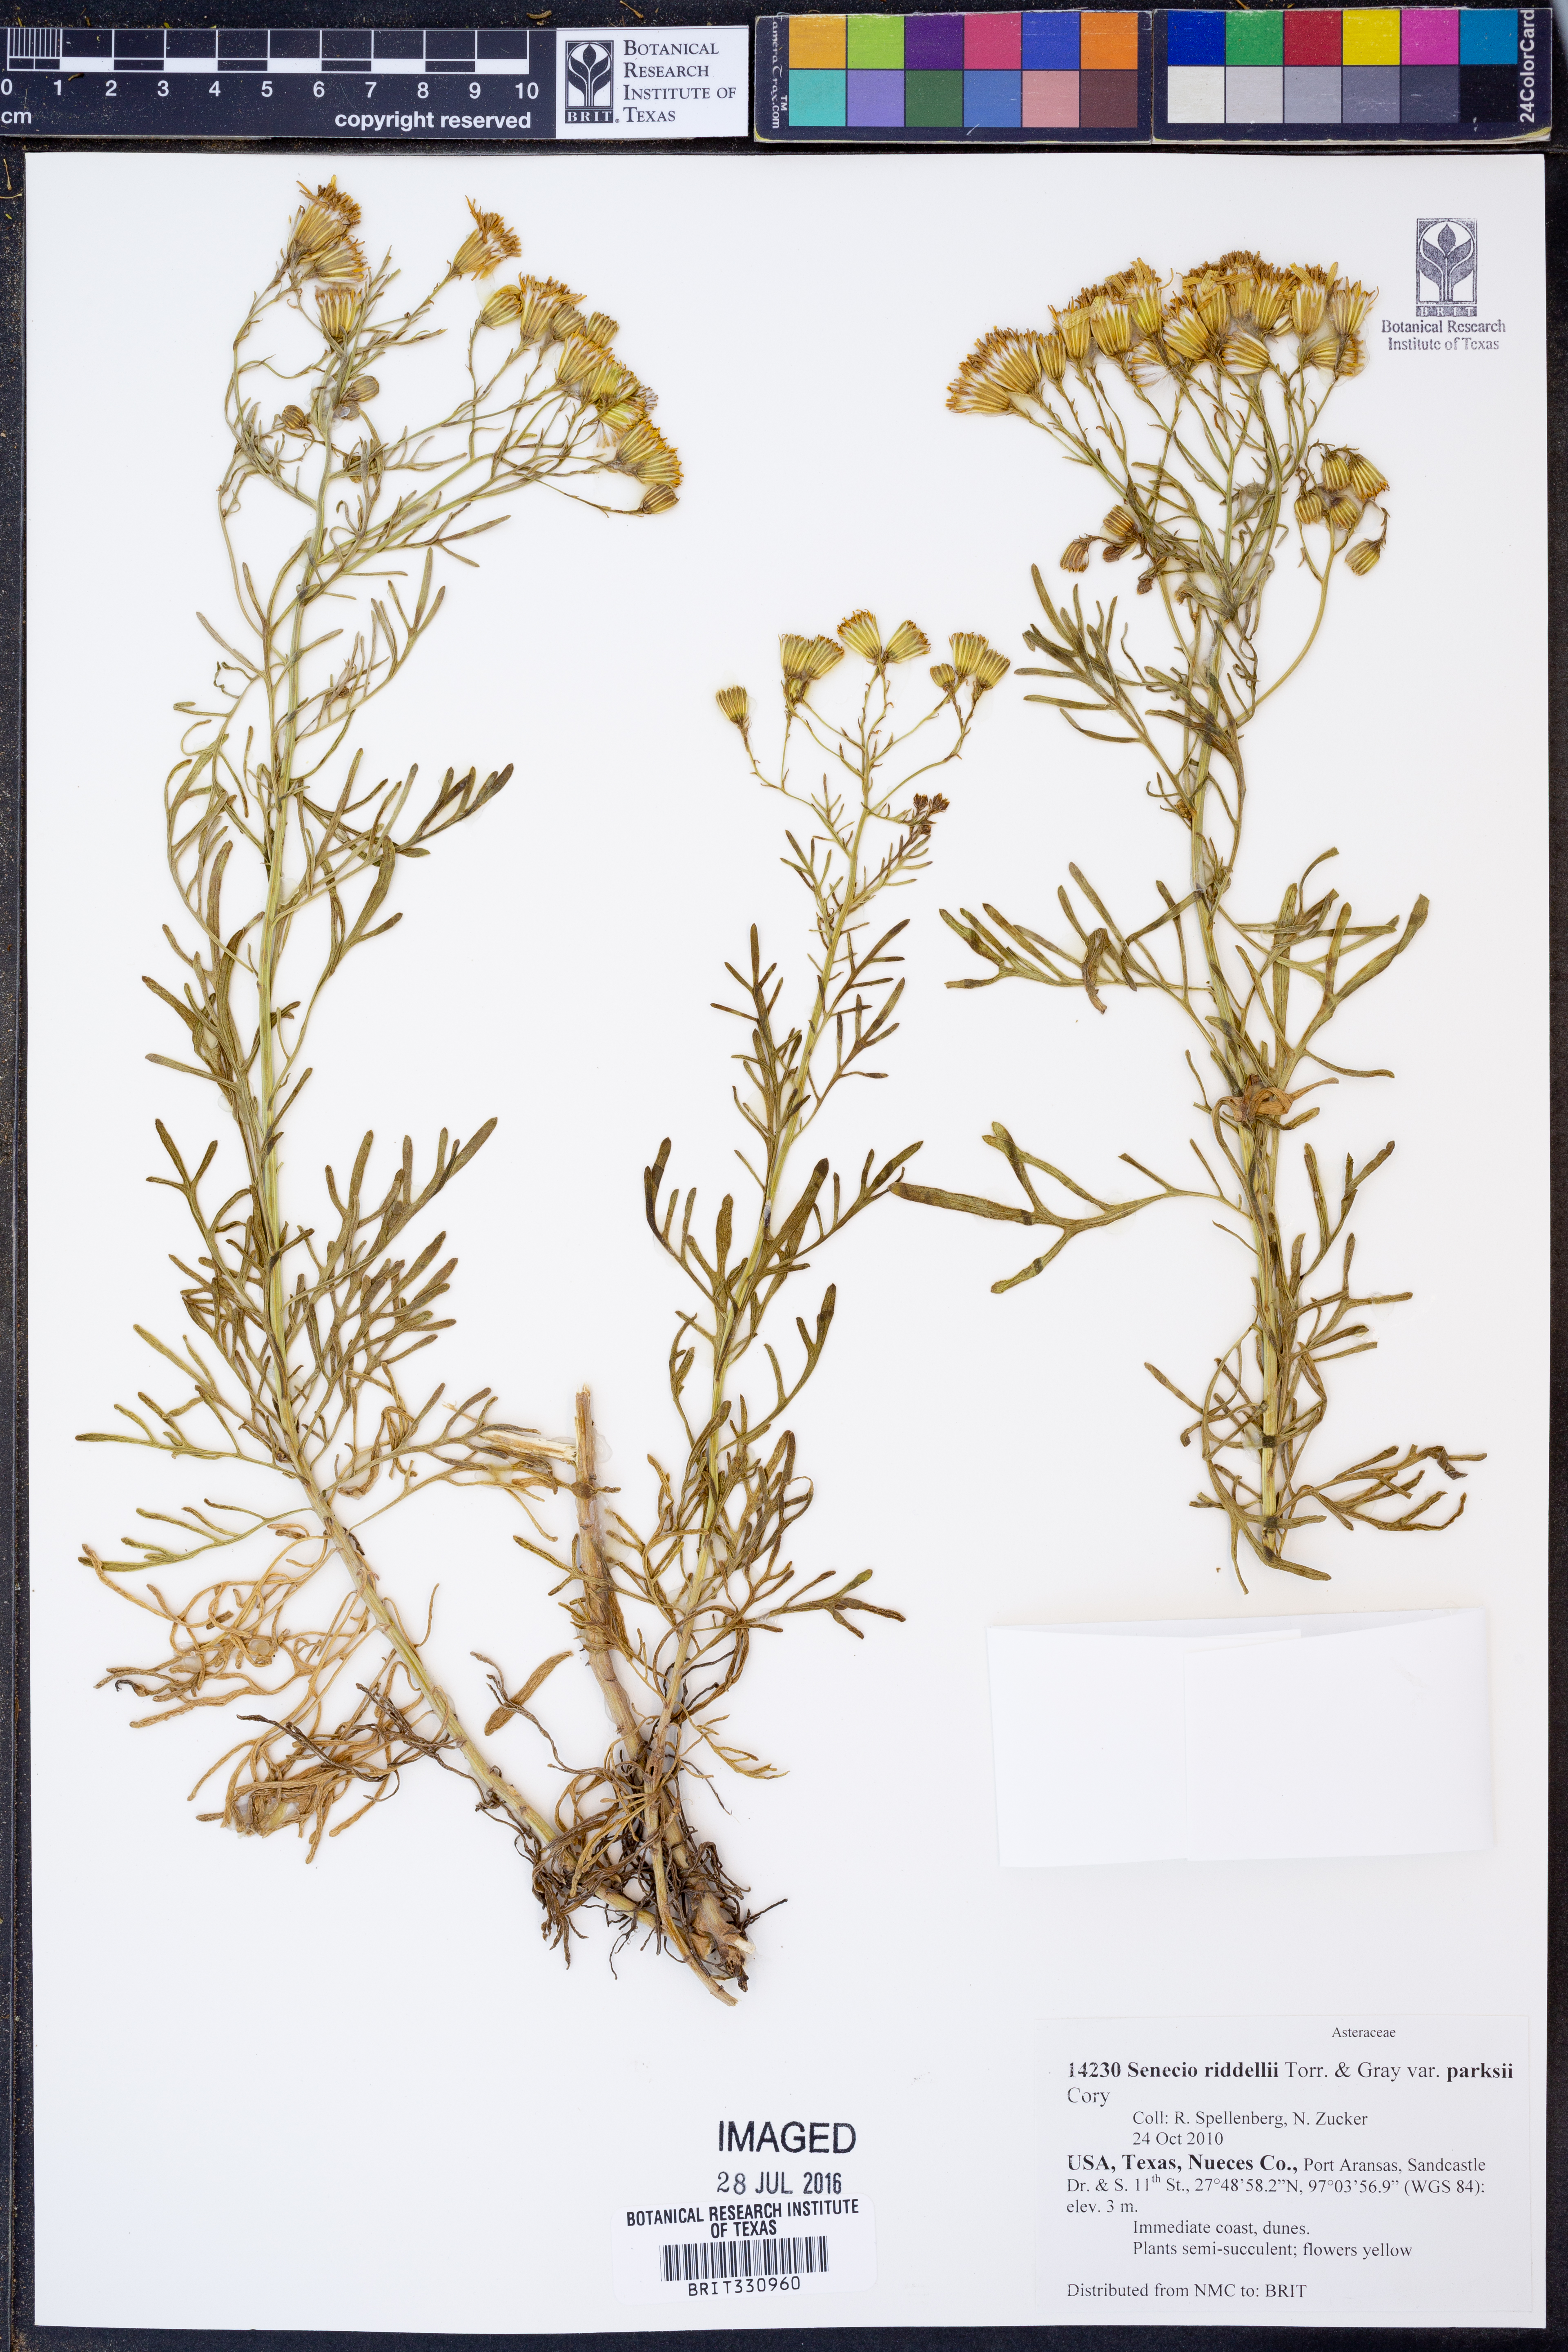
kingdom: Plantae
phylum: Tracheophyta
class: Magnoliopsida
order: Asterales
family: Asteraceae
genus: Senecio
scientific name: Senecio riddellii
